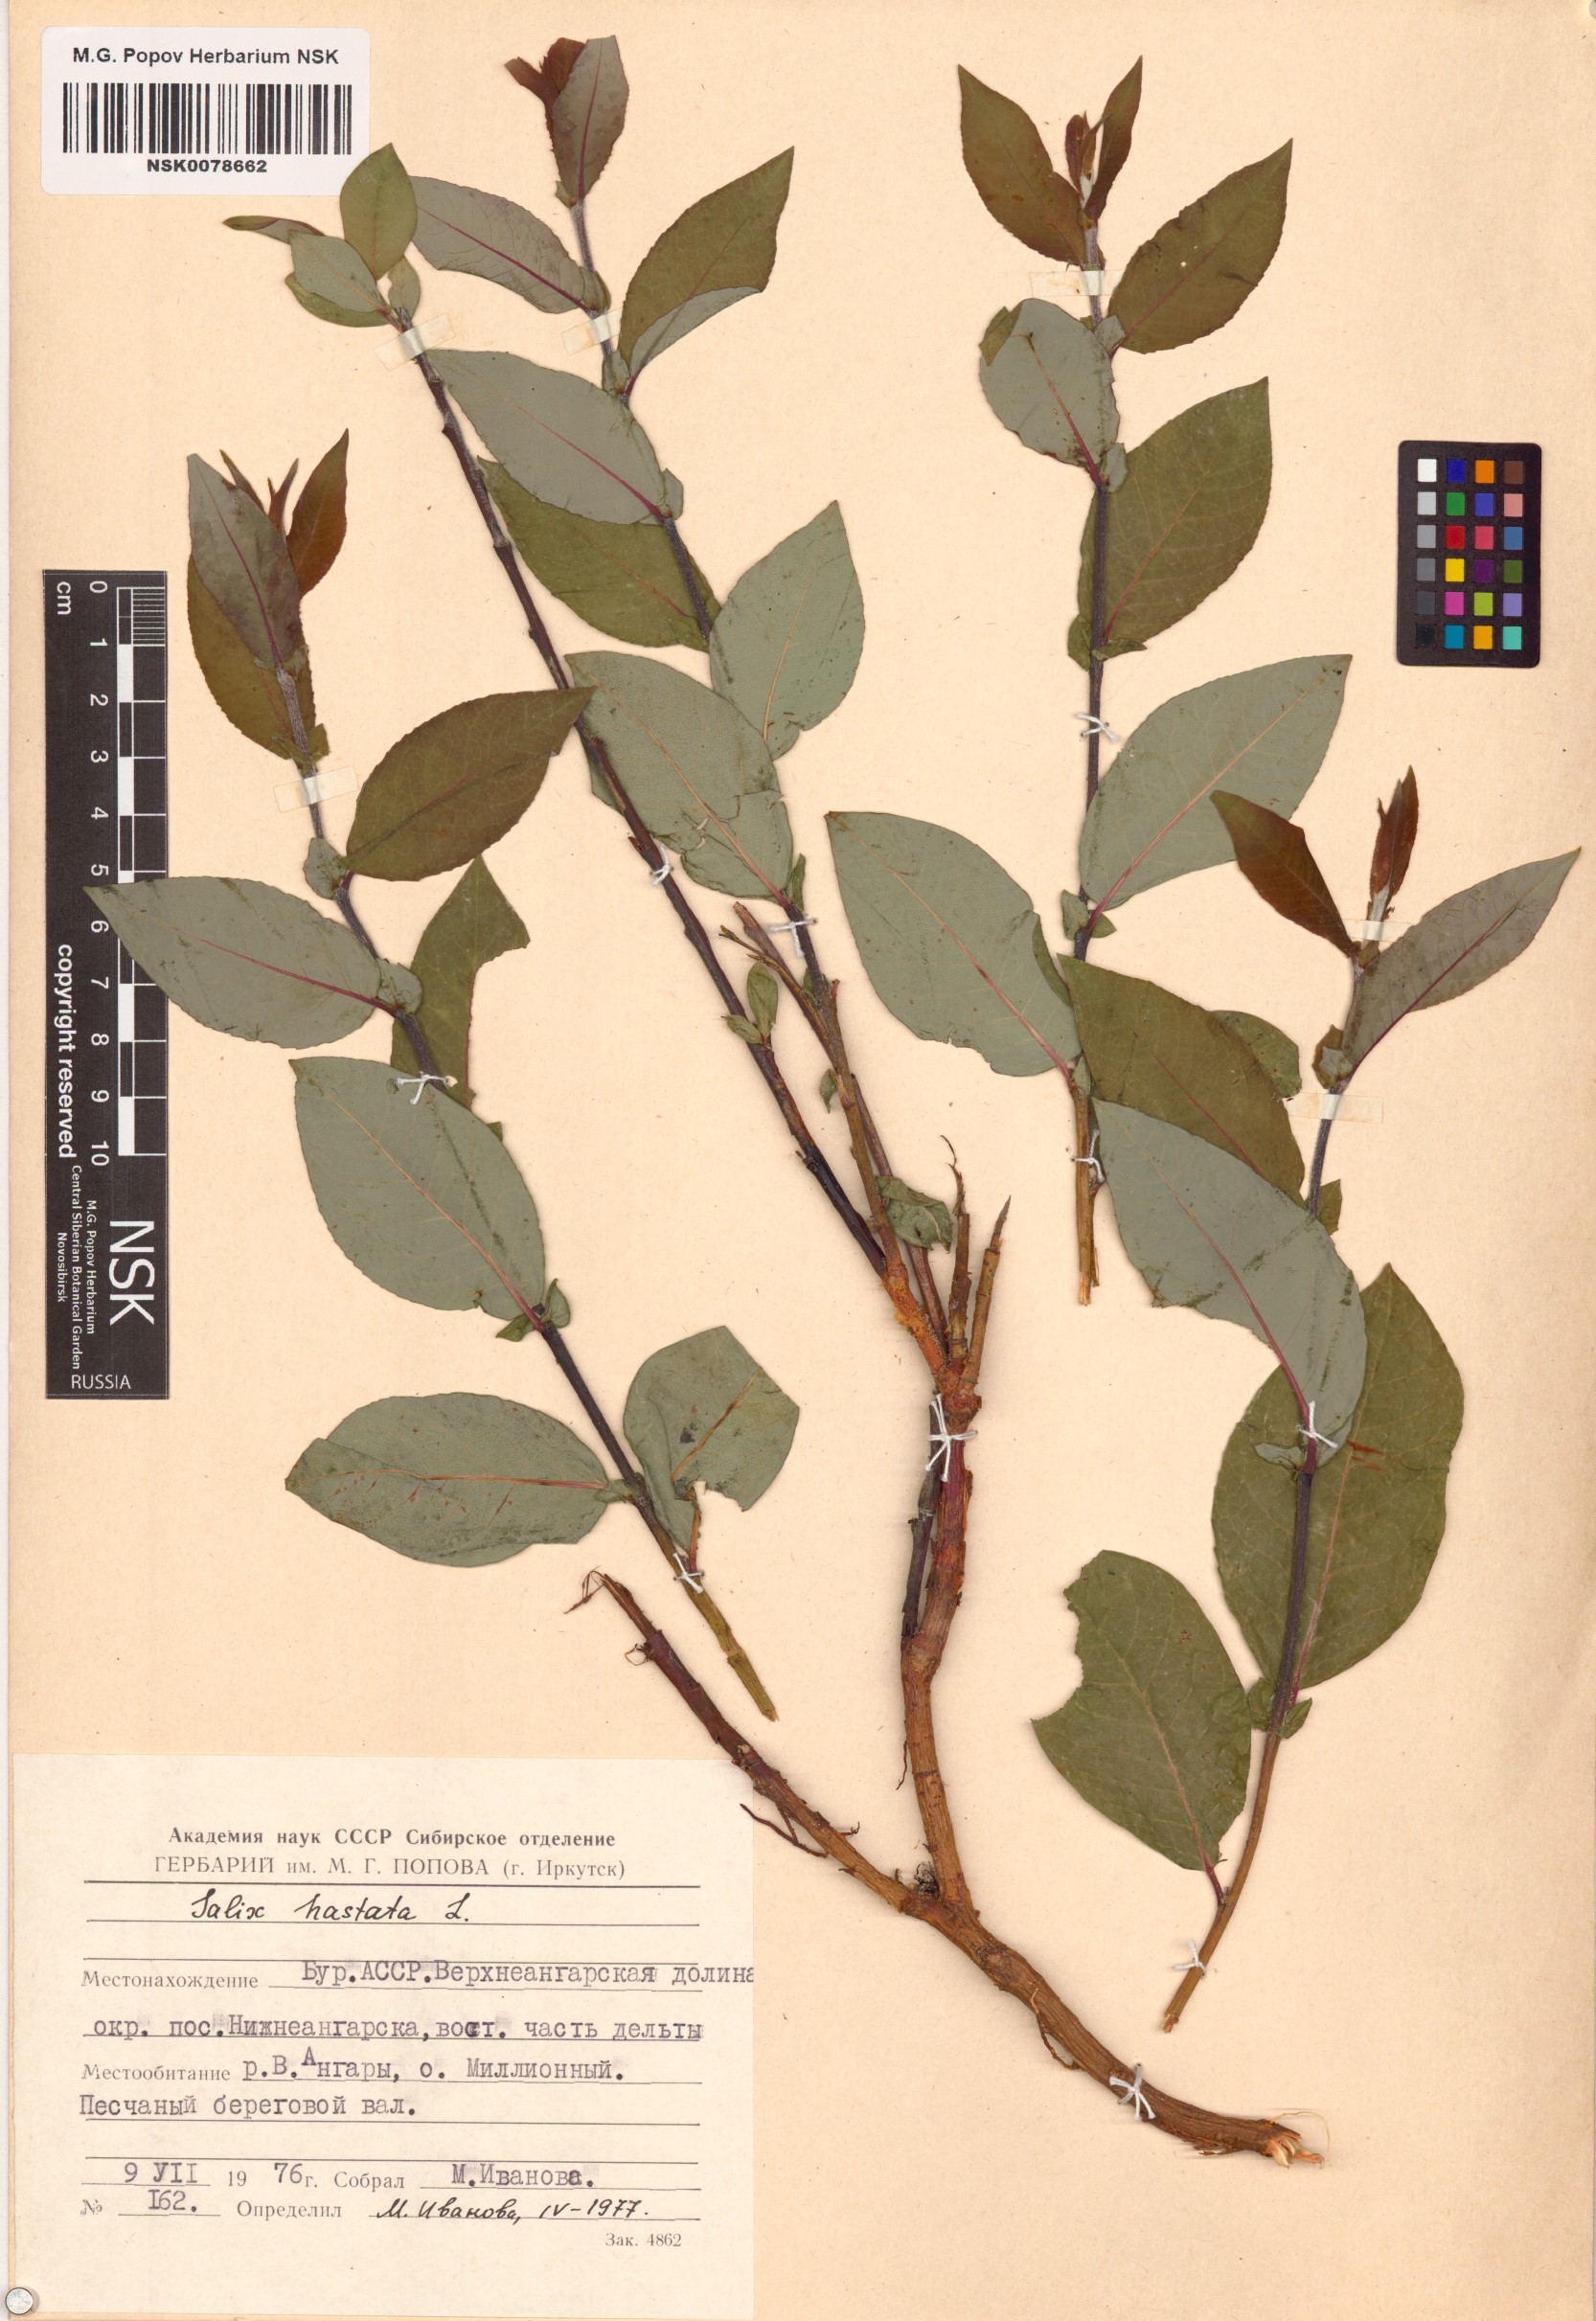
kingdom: Plantae
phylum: Tracheophyta
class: Magnoliopsida
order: Malpighiales
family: Salicaceae
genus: Salix
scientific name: Salix hastata
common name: Halberd willow
